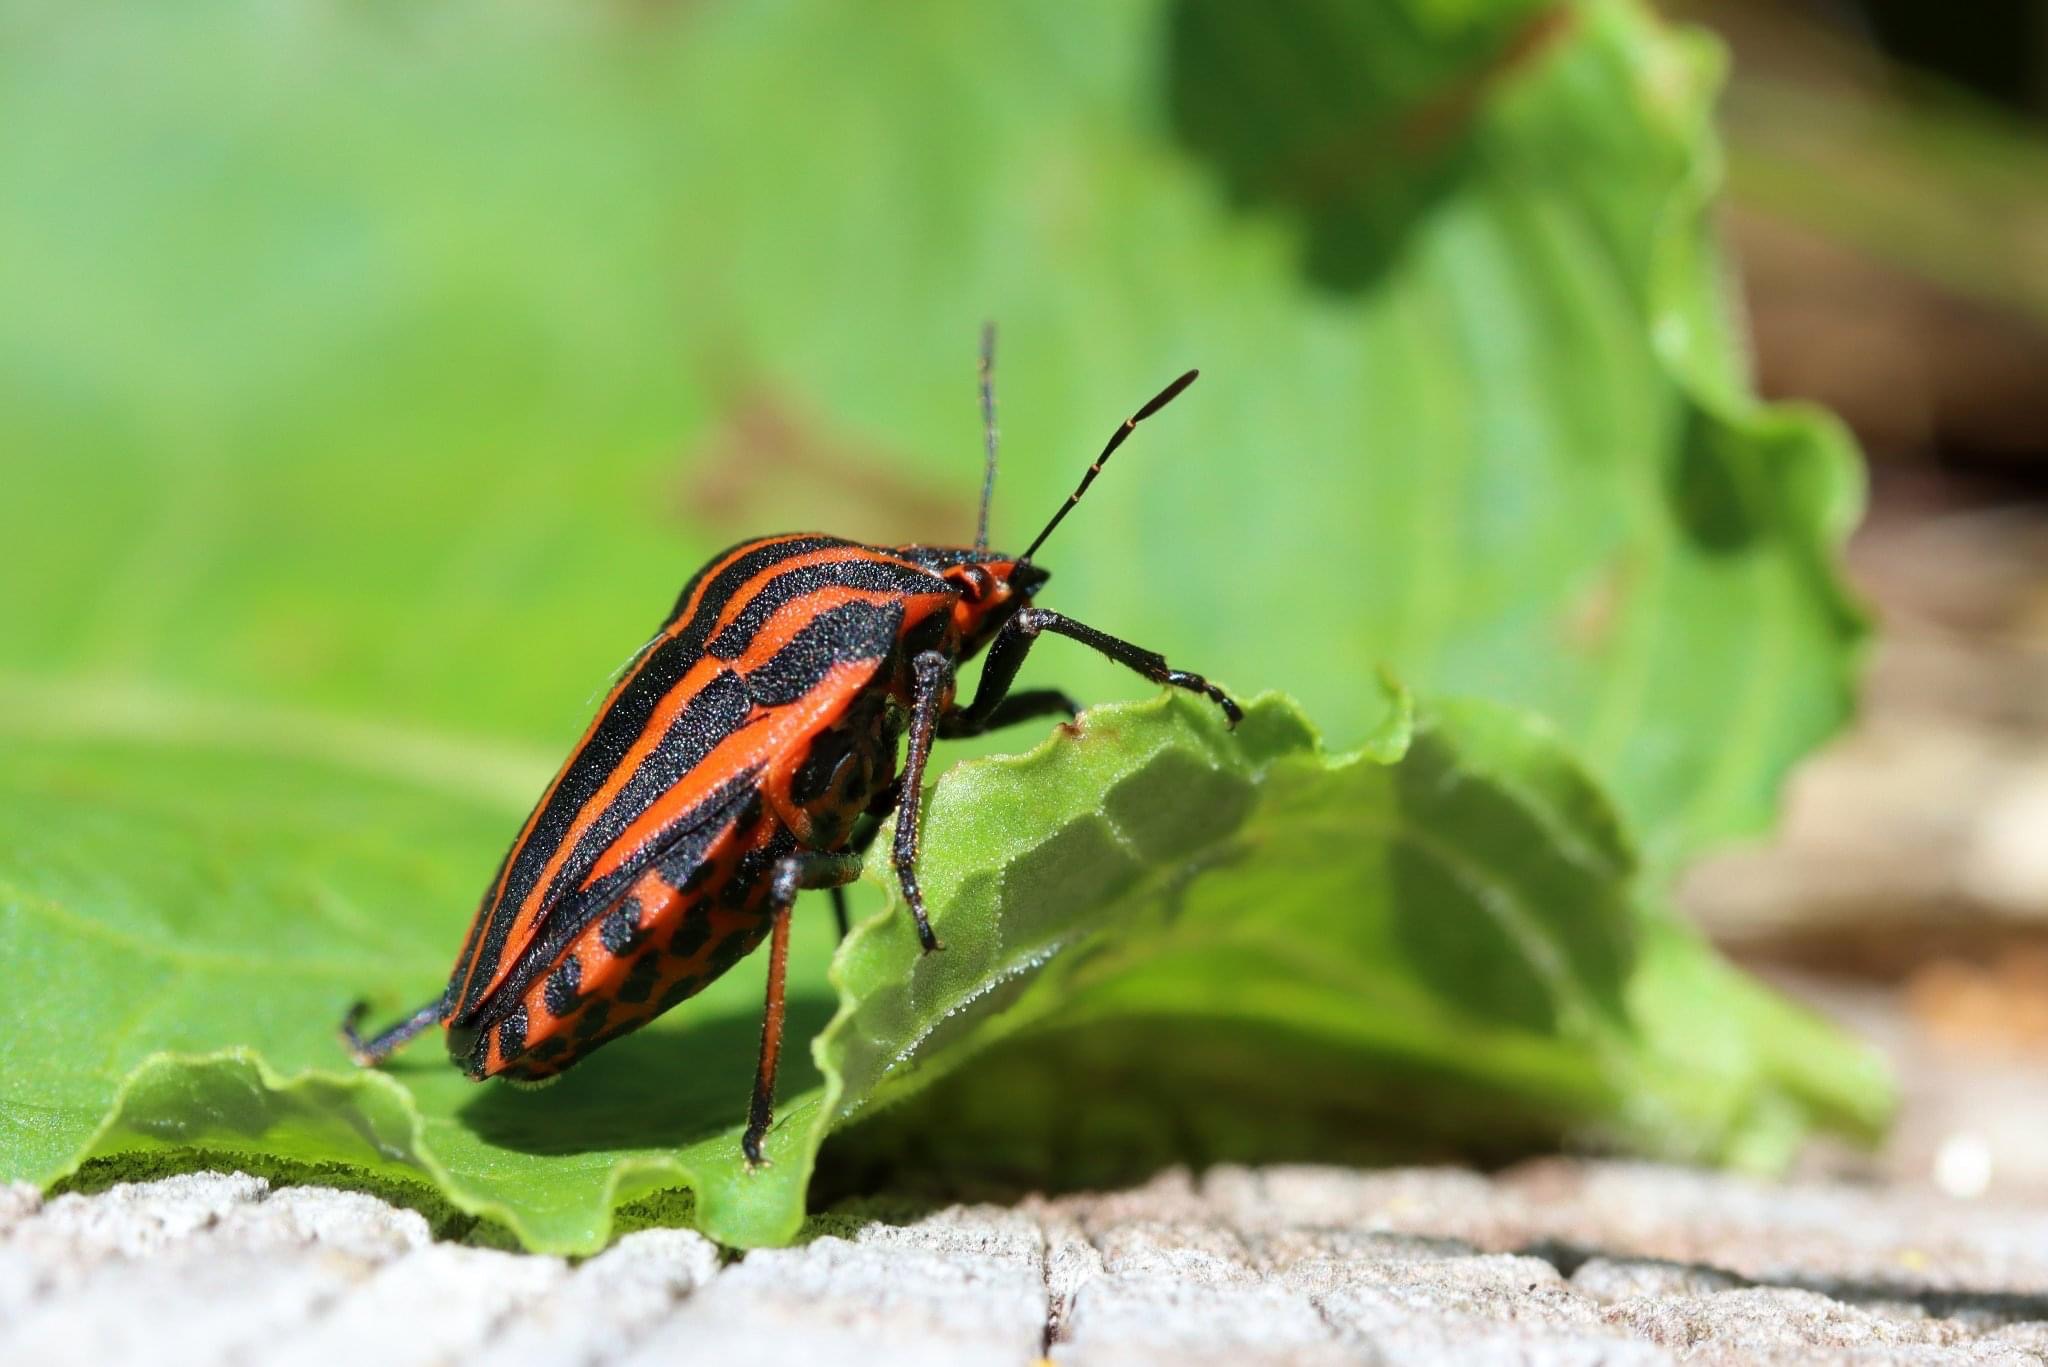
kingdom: Animalia
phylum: Arthropoda
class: Insecta
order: Hemiptera
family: Pentatomidae
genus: Graphosoma
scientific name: Graphosoma italicum
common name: Stribetæge
